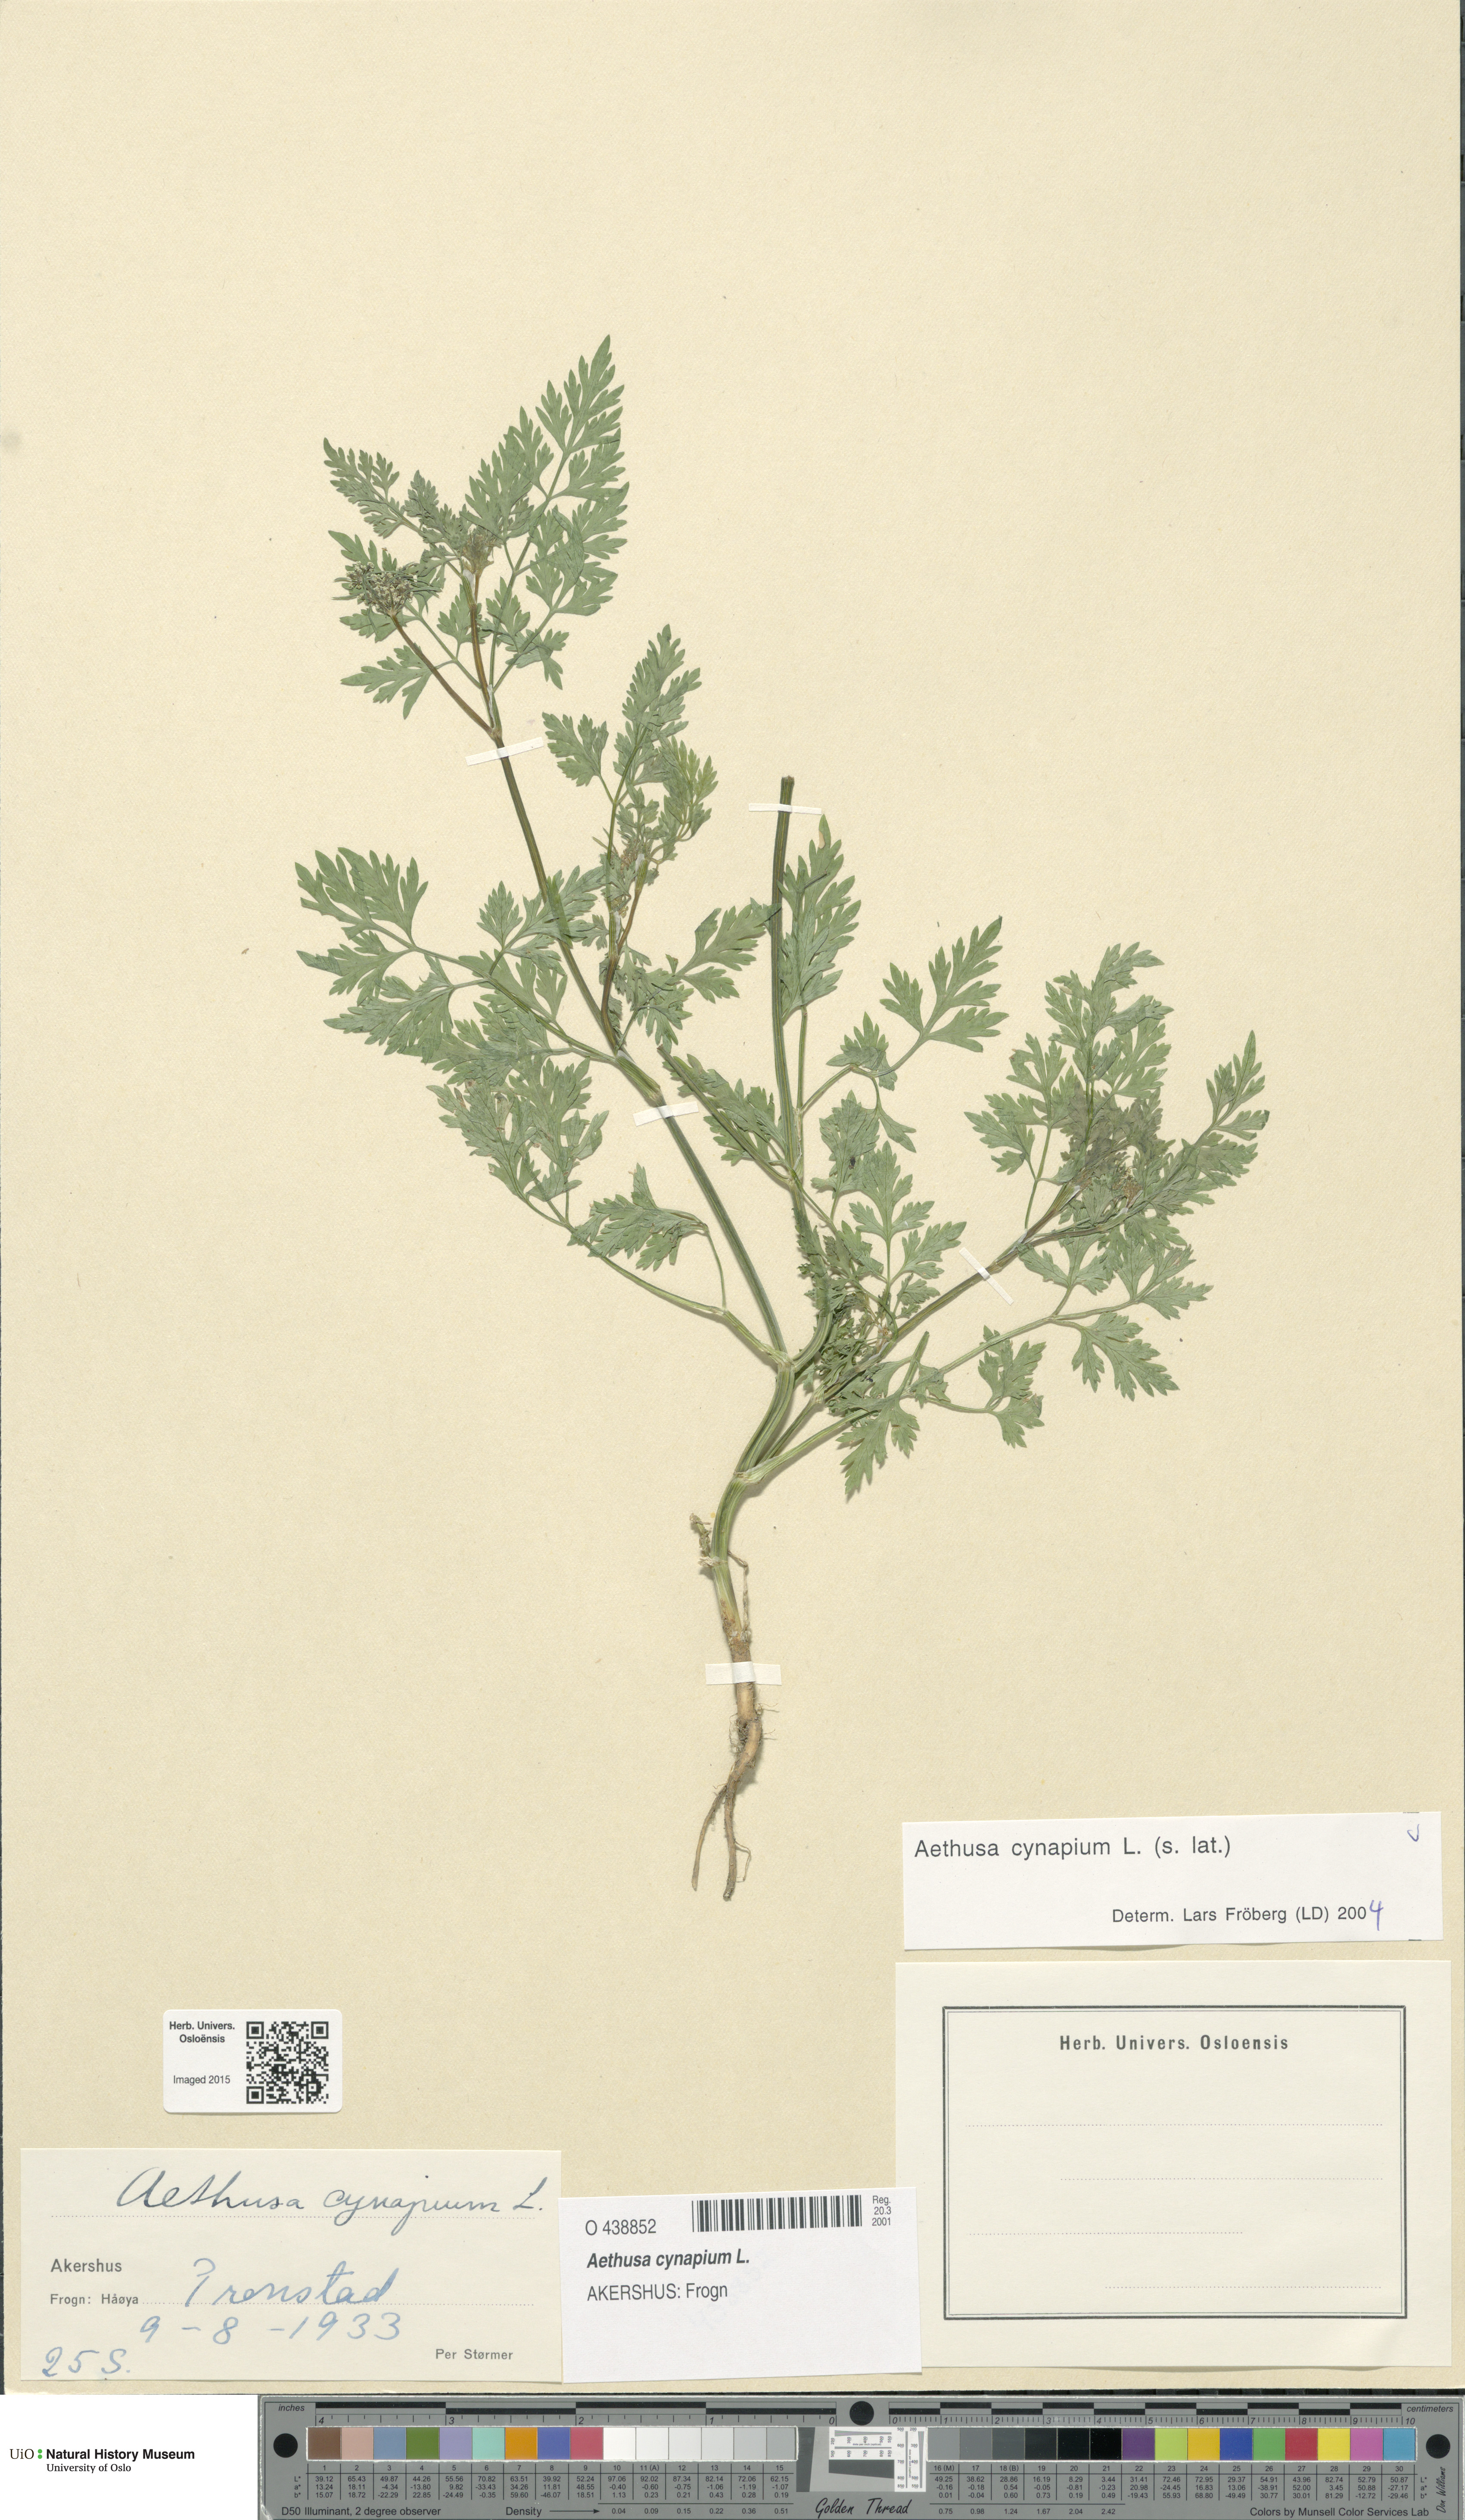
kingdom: Plantae
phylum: Tracheophyta
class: Magnoliopsida
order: Apiales
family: Apiaceae
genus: Aethusa
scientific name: Aethusa cynapium
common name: Fool's parsley
